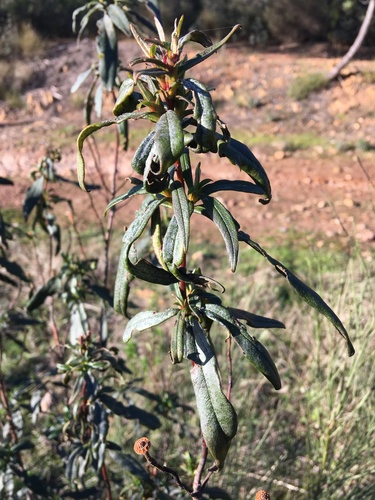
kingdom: Plantae
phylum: Tracheophyta
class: Magnoliopsida
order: Malvales
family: Cistaceae
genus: Cistus
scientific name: Cistus ladanifer
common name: Common gum cistus
